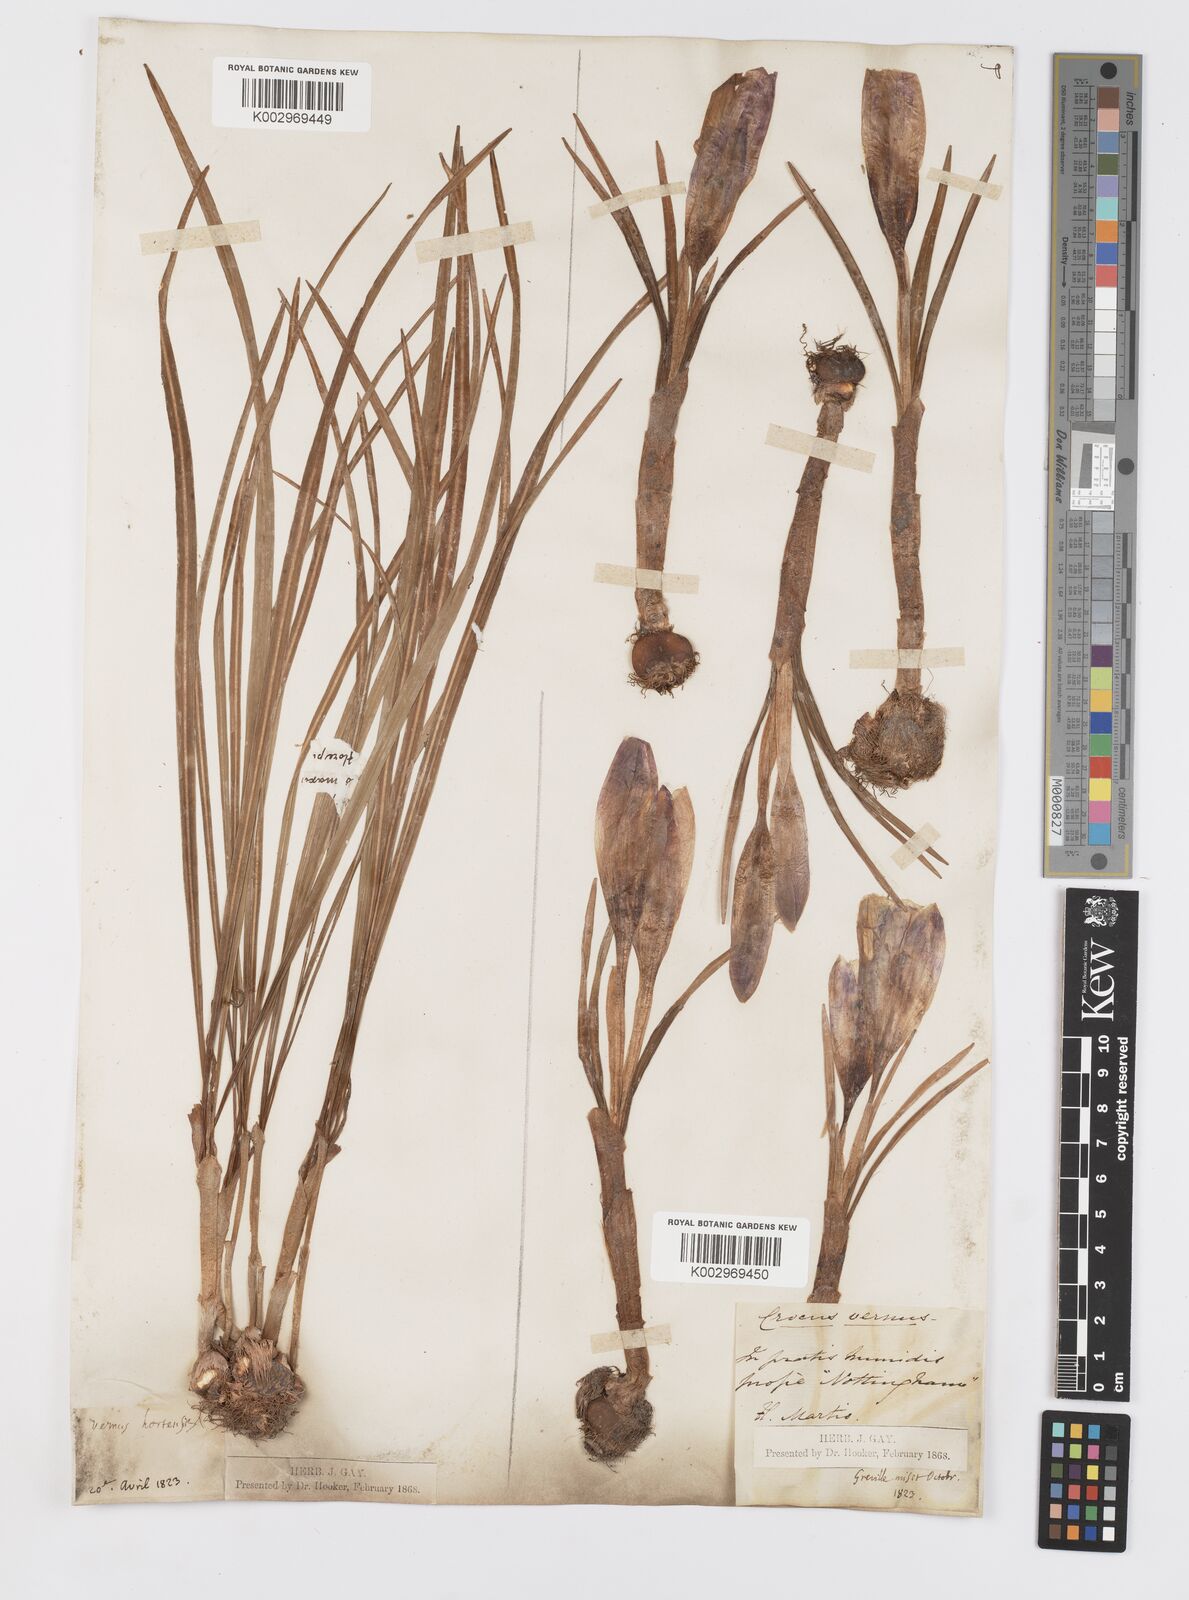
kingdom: Plantae
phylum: Tracheophyta
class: Liliopsida
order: Asparagales
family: Iridaceae
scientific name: Iridaceae
